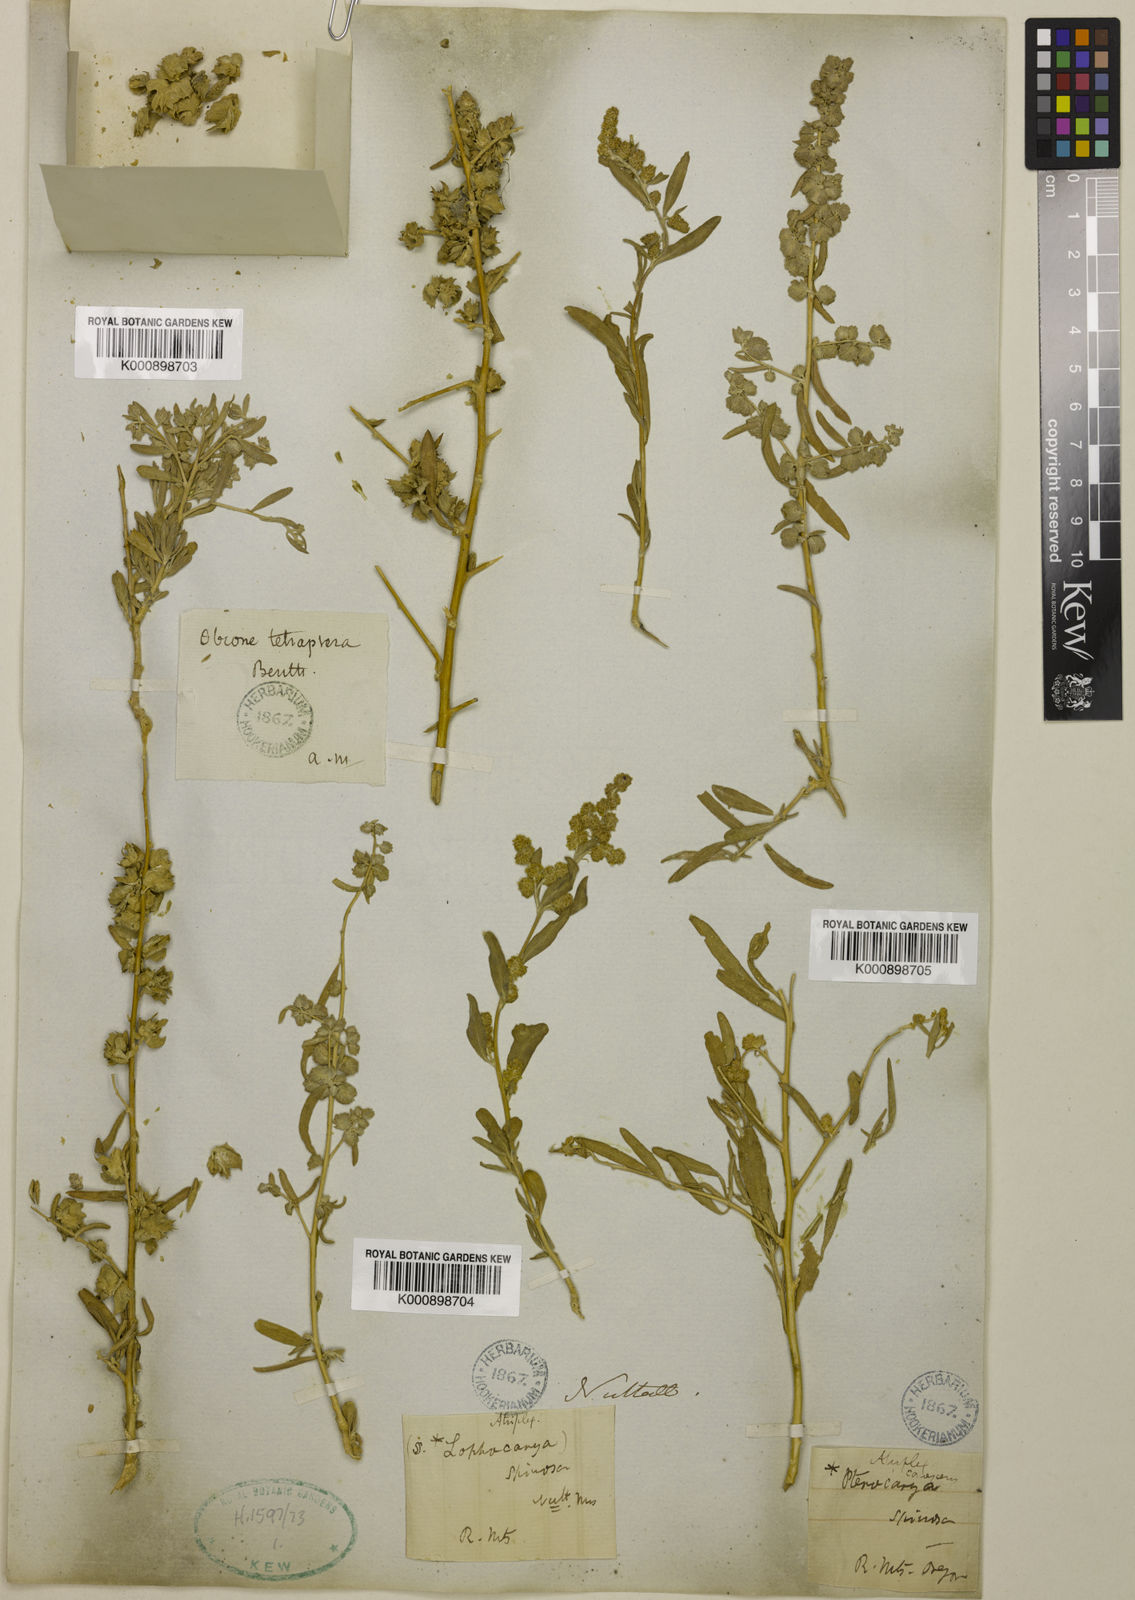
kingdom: Plantae
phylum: Tracheophyta
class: Magnoliopsida
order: Caryophyllales
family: Amaranthaceae
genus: Atriplex
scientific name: Atriplex canescens
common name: Four-wing saltbush
